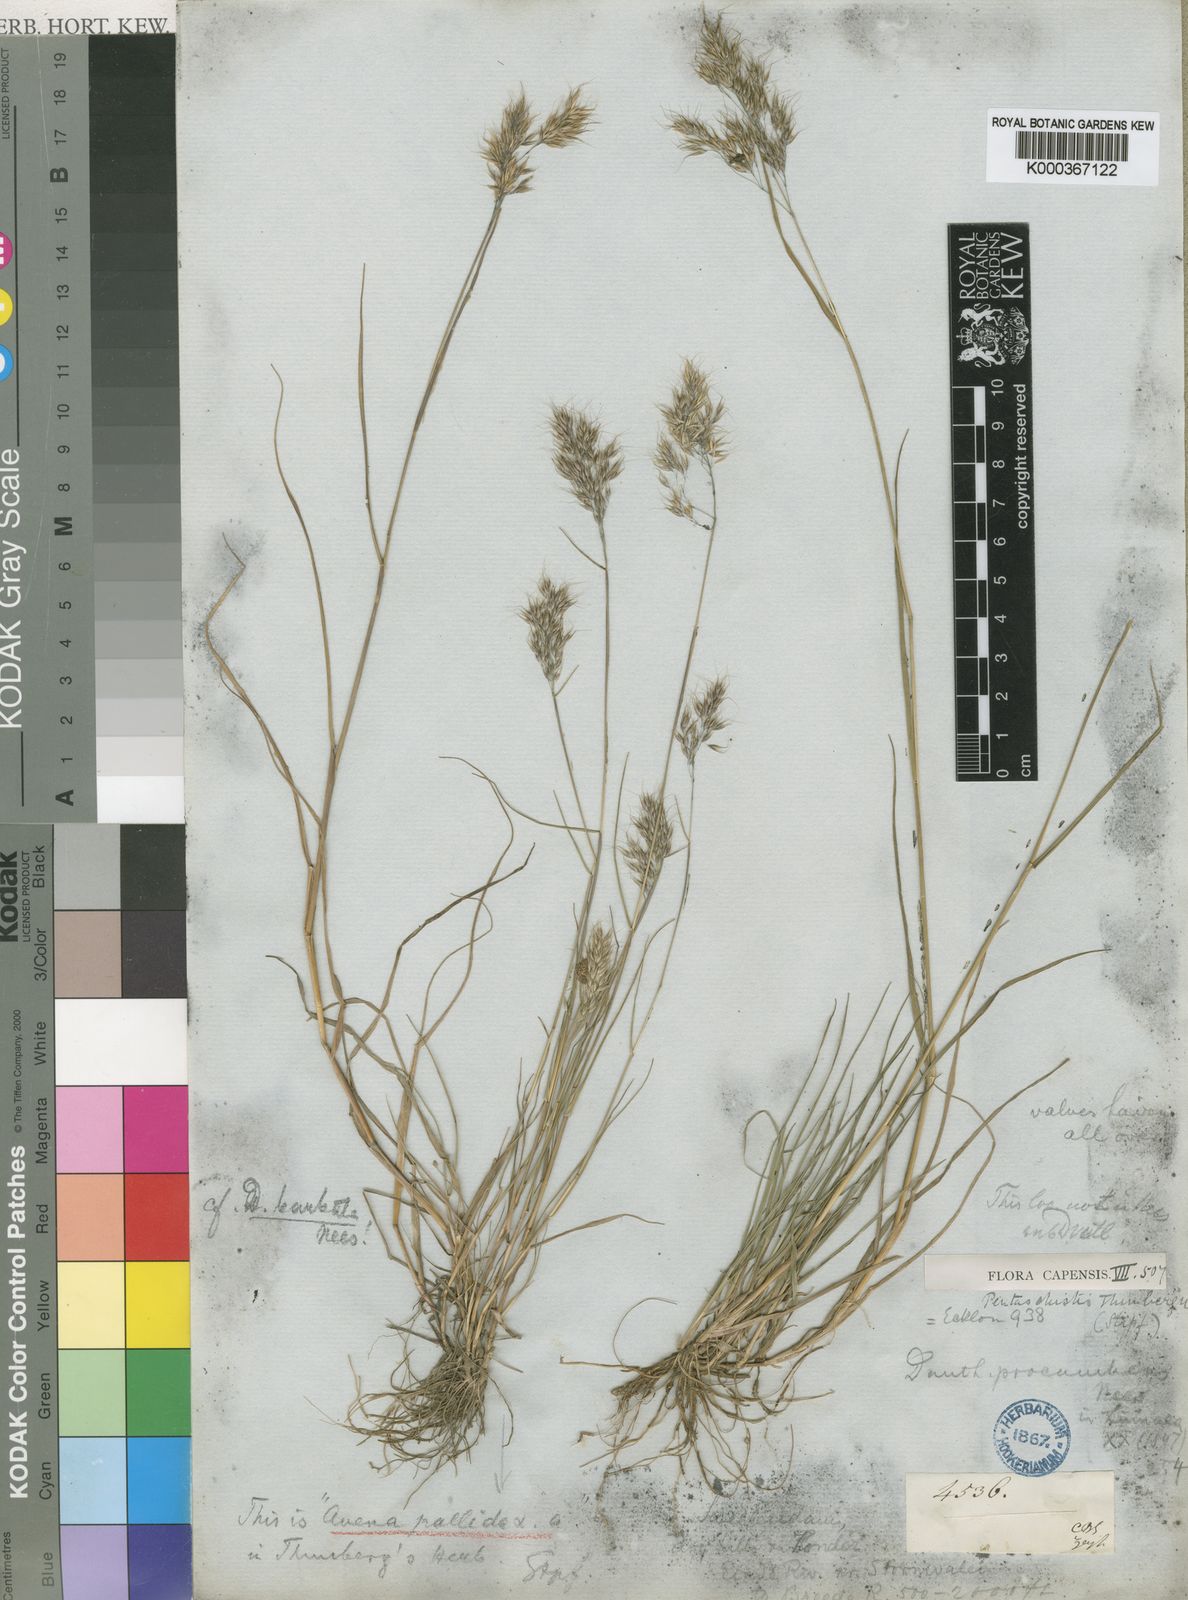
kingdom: Plantae
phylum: Tracheophyta
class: Liliopsida
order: Poales
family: Poaceae
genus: Pentameris
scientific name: Pentameris triseta
